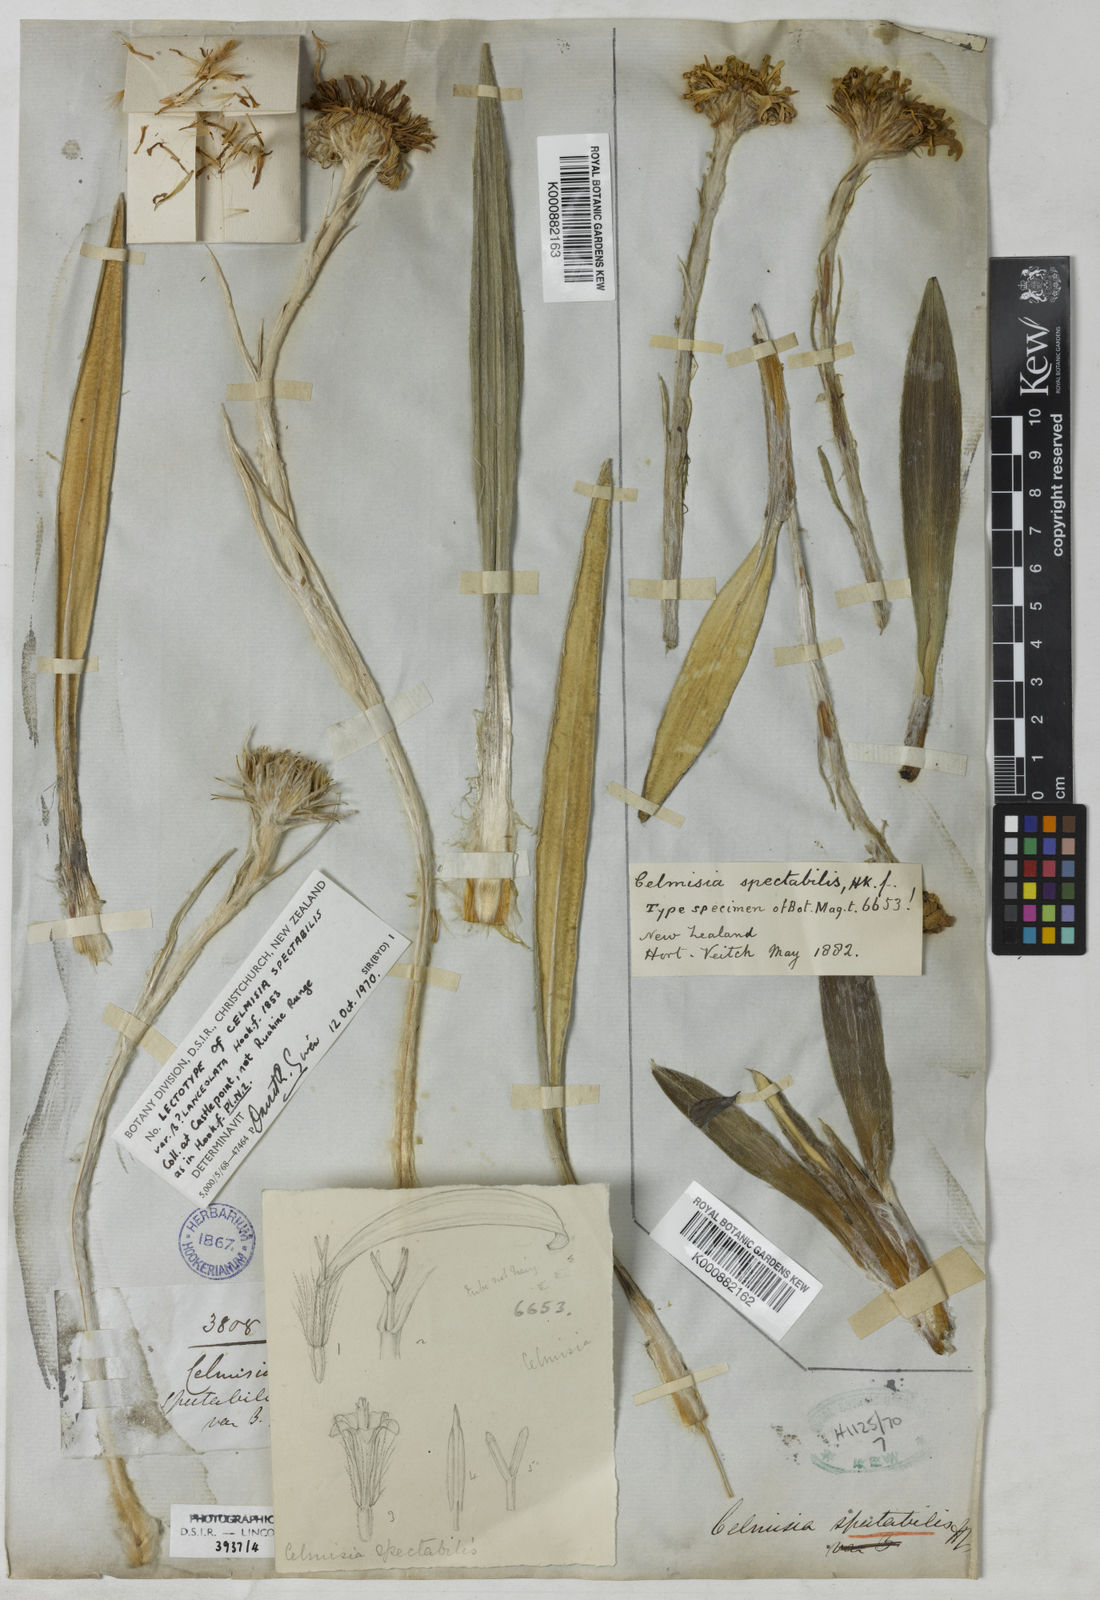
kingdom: Plantae
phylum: Tracheophyta
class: Magnoliopsida
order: Asterales
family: Asteraceae
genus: Celmisia
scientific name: Celmisia spectabilis
